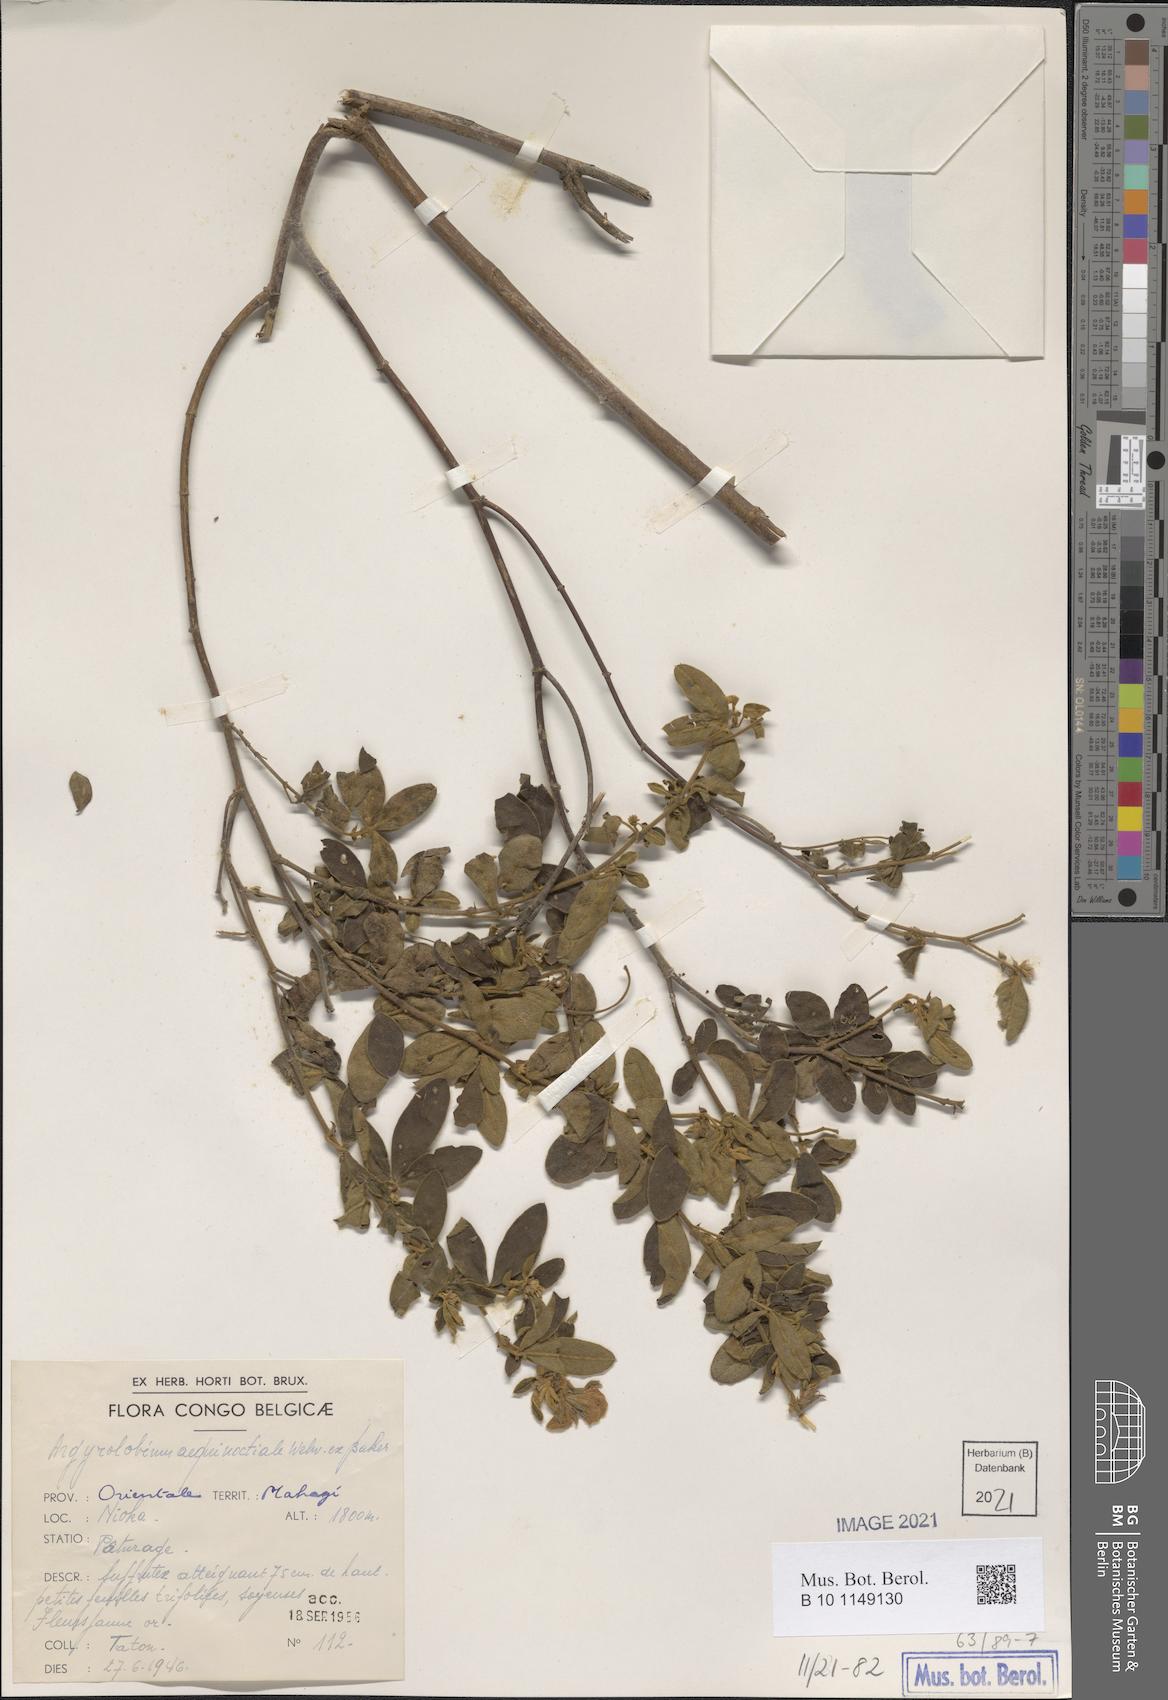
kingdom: Plantae
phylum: Tracheophyta
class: Magnoliopsida
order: Fabales
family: Fabaceae
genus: Argyrolobium
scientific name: Argyrolobium aequinoctiale
